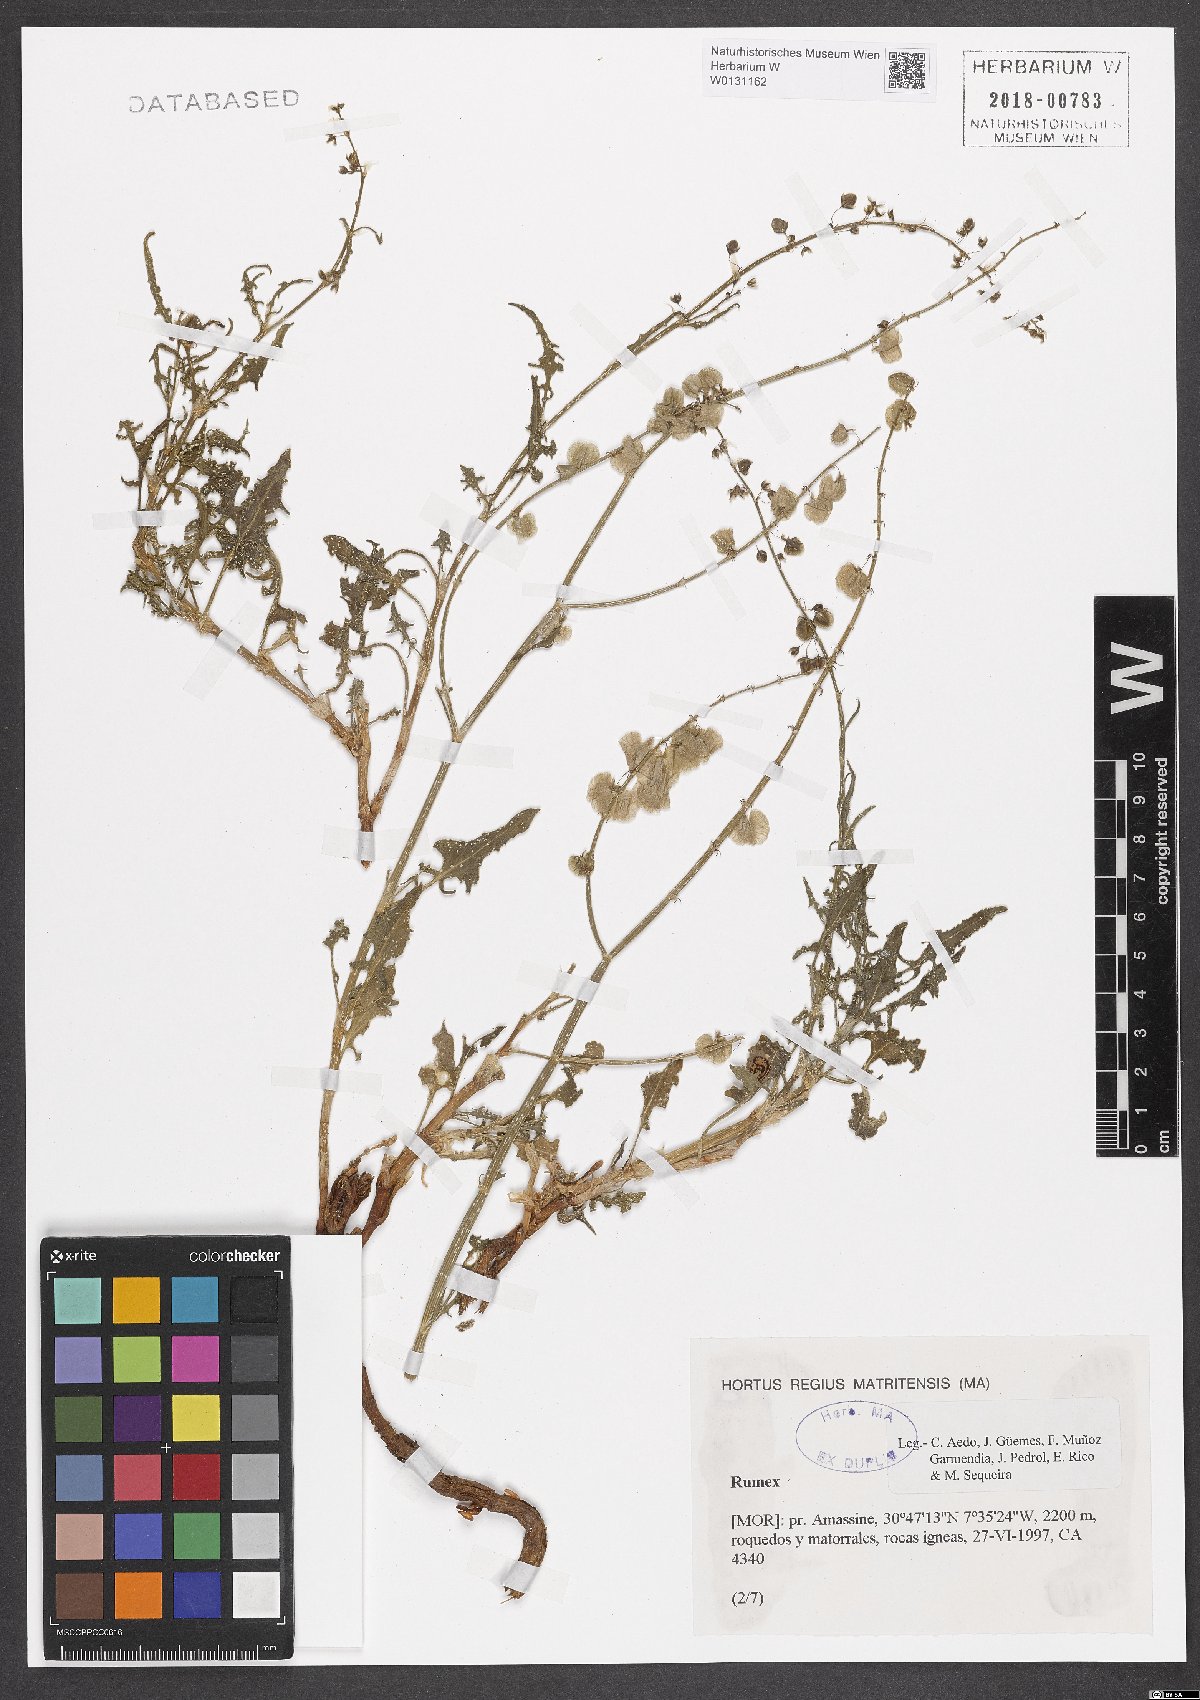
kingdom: Plantae
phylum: Tracheophyta
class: Magnoliopsida
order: Caryophyllales
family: Polygonaceae
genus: Rumex
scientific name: Rumex
